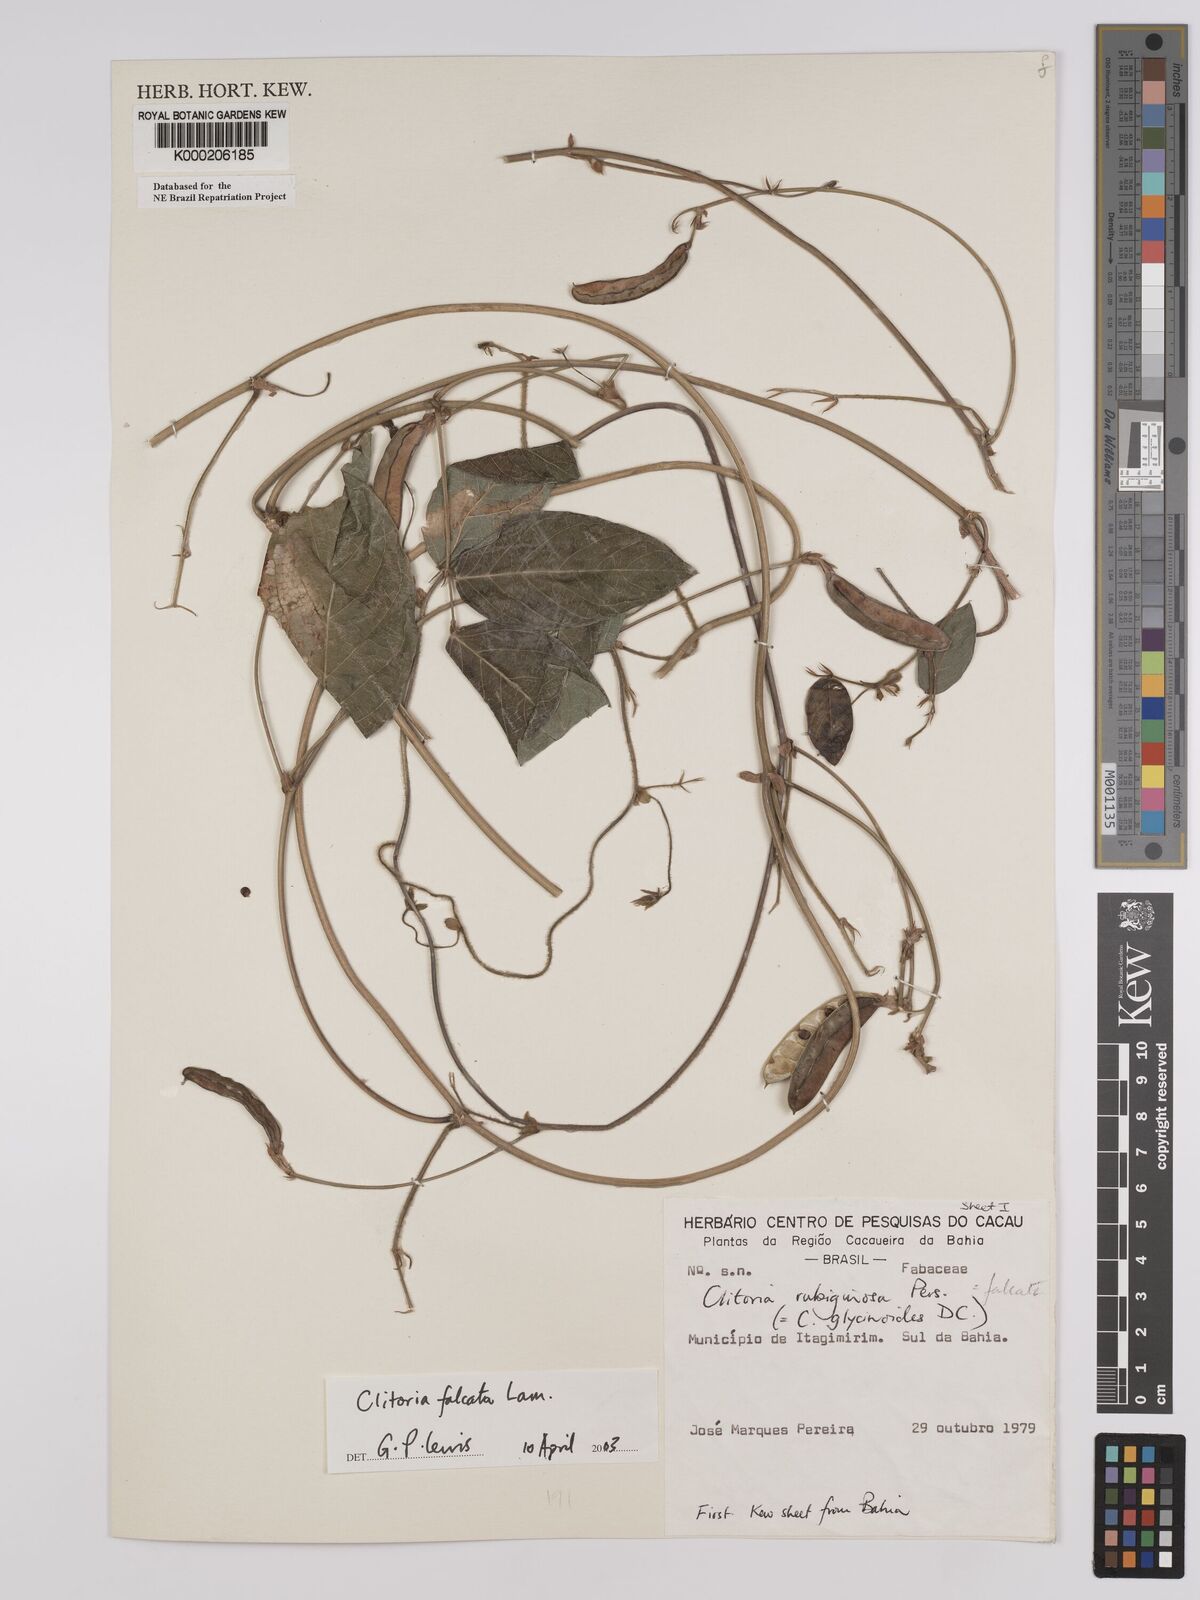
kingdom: Plantae
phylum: Tracheophyta
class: Magnoliopsida
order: Fabales
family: Fabaceae
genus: Clitoria
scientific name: Clitoria falcata
